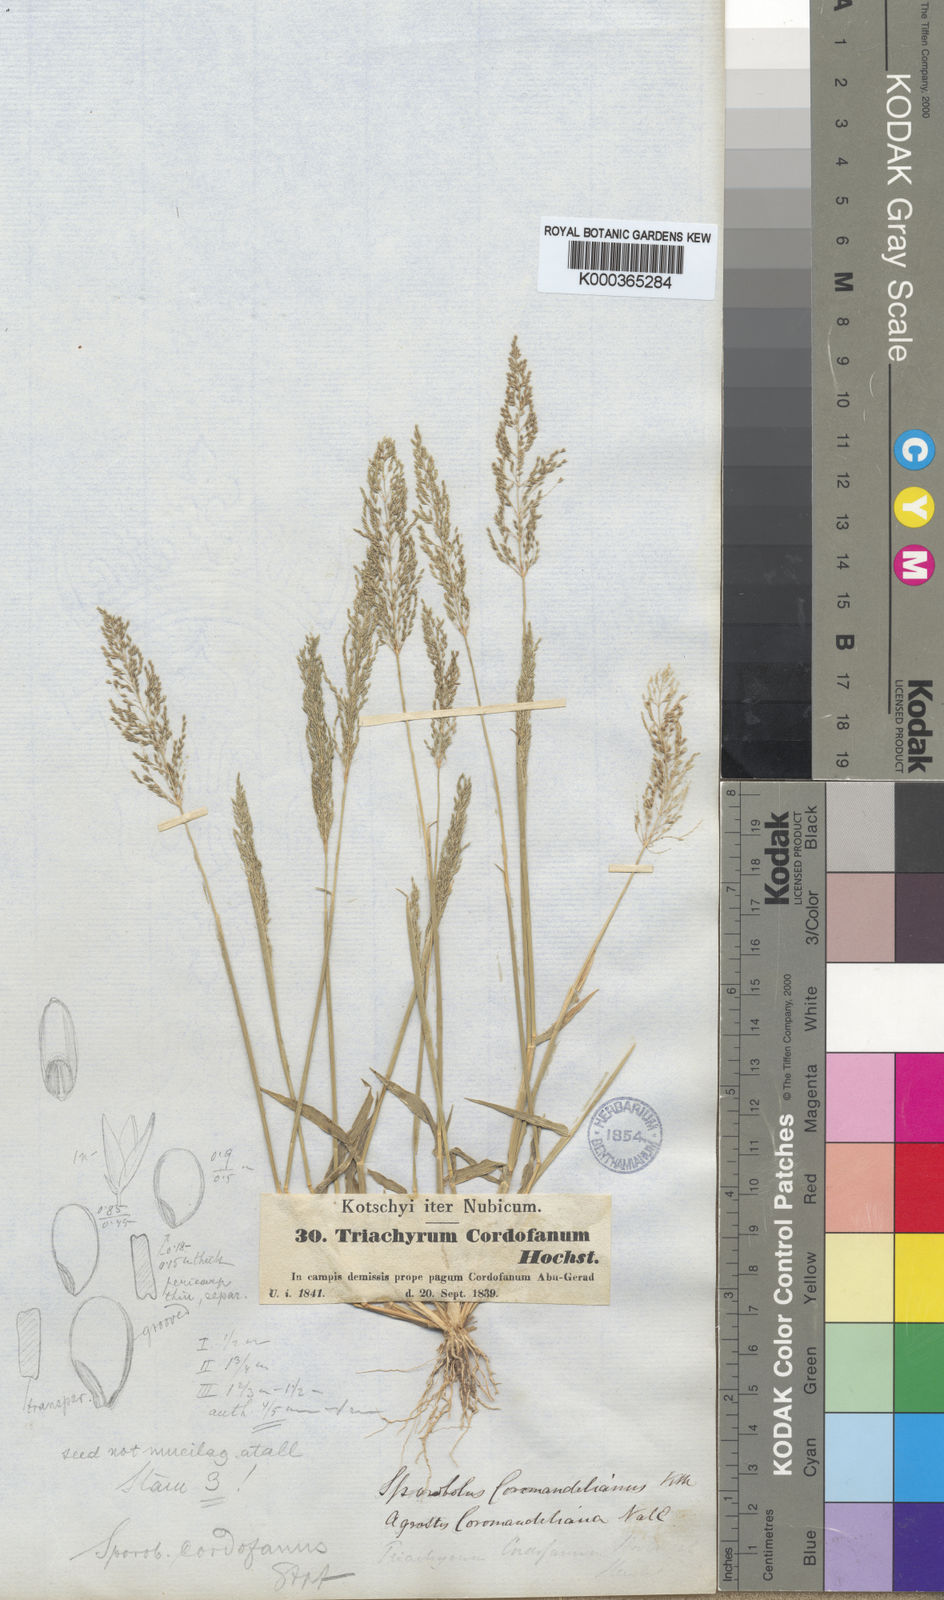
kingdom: Plantae
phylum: Tracheophyta
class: Liliopsida
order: Poales
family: Poaceae
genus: Sporobolus
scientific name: Sporobolus cordofanus
